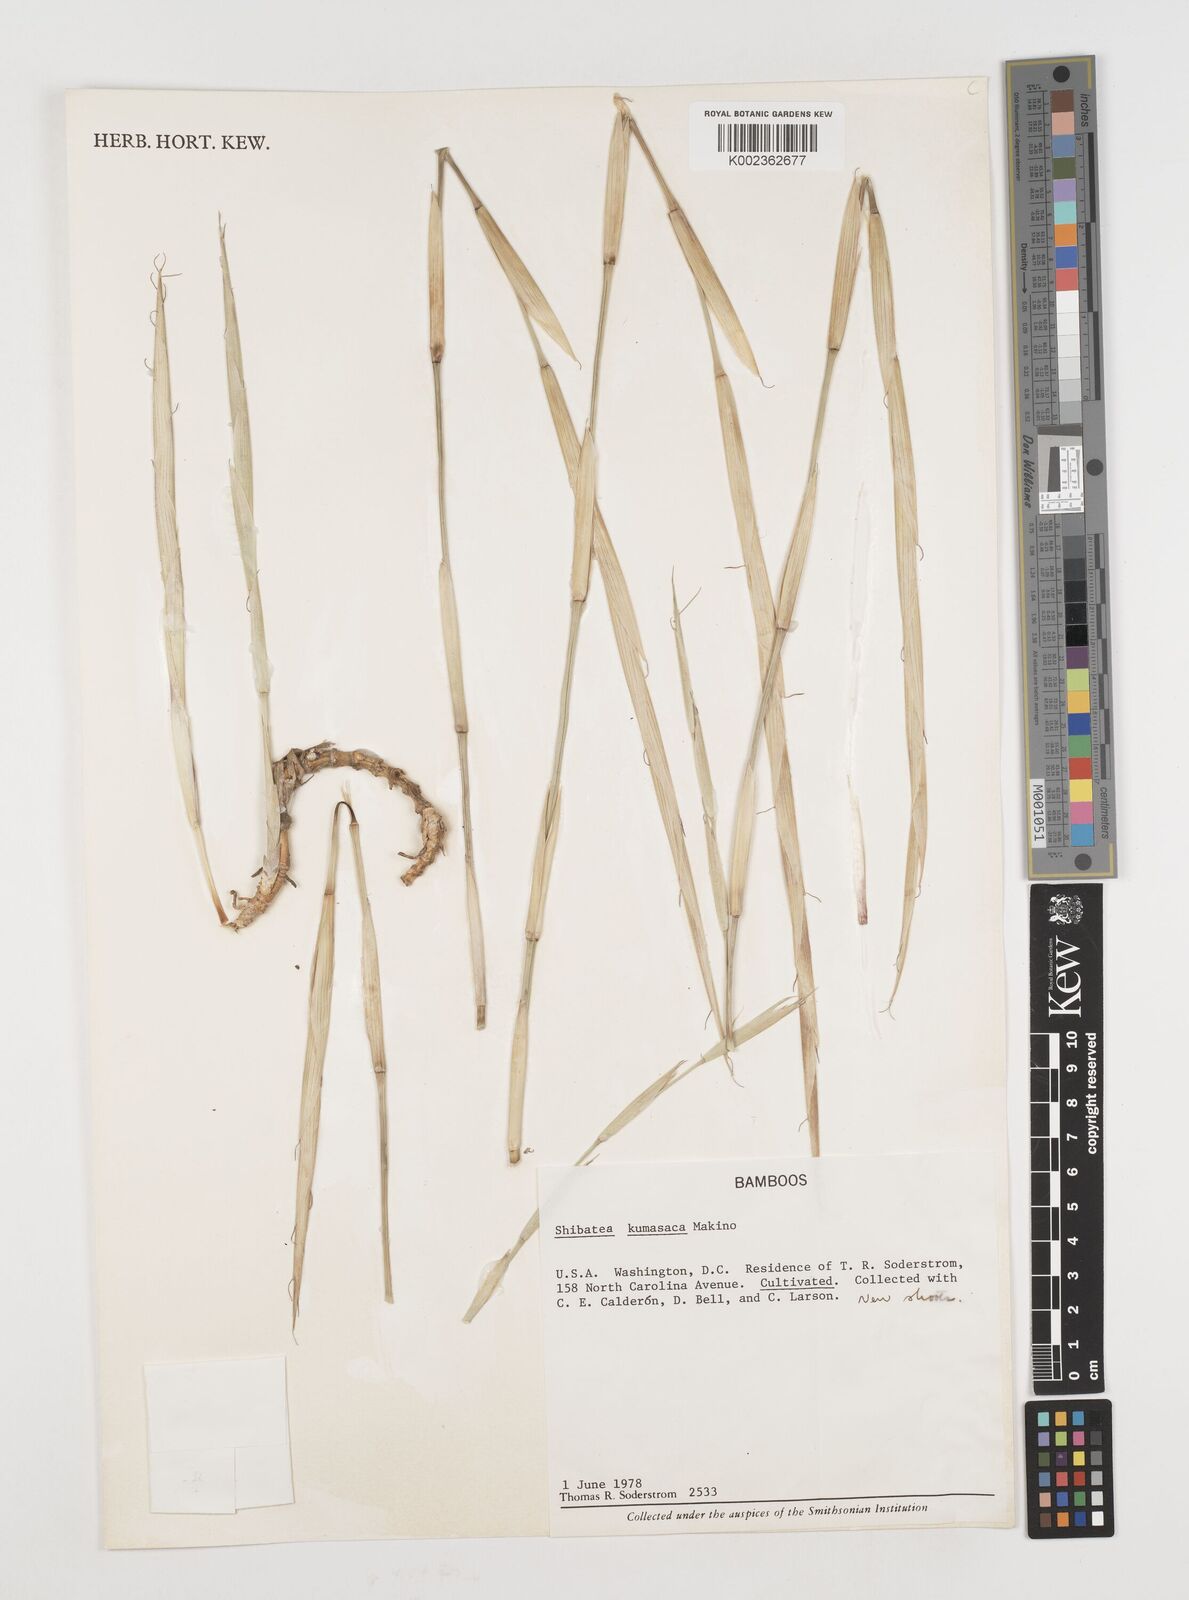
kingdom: Plantae
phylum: Tracheophyta
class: Liliopsida
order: Poales
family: Poaceae
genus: Shibataea
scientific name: Shibataea kumasasa
